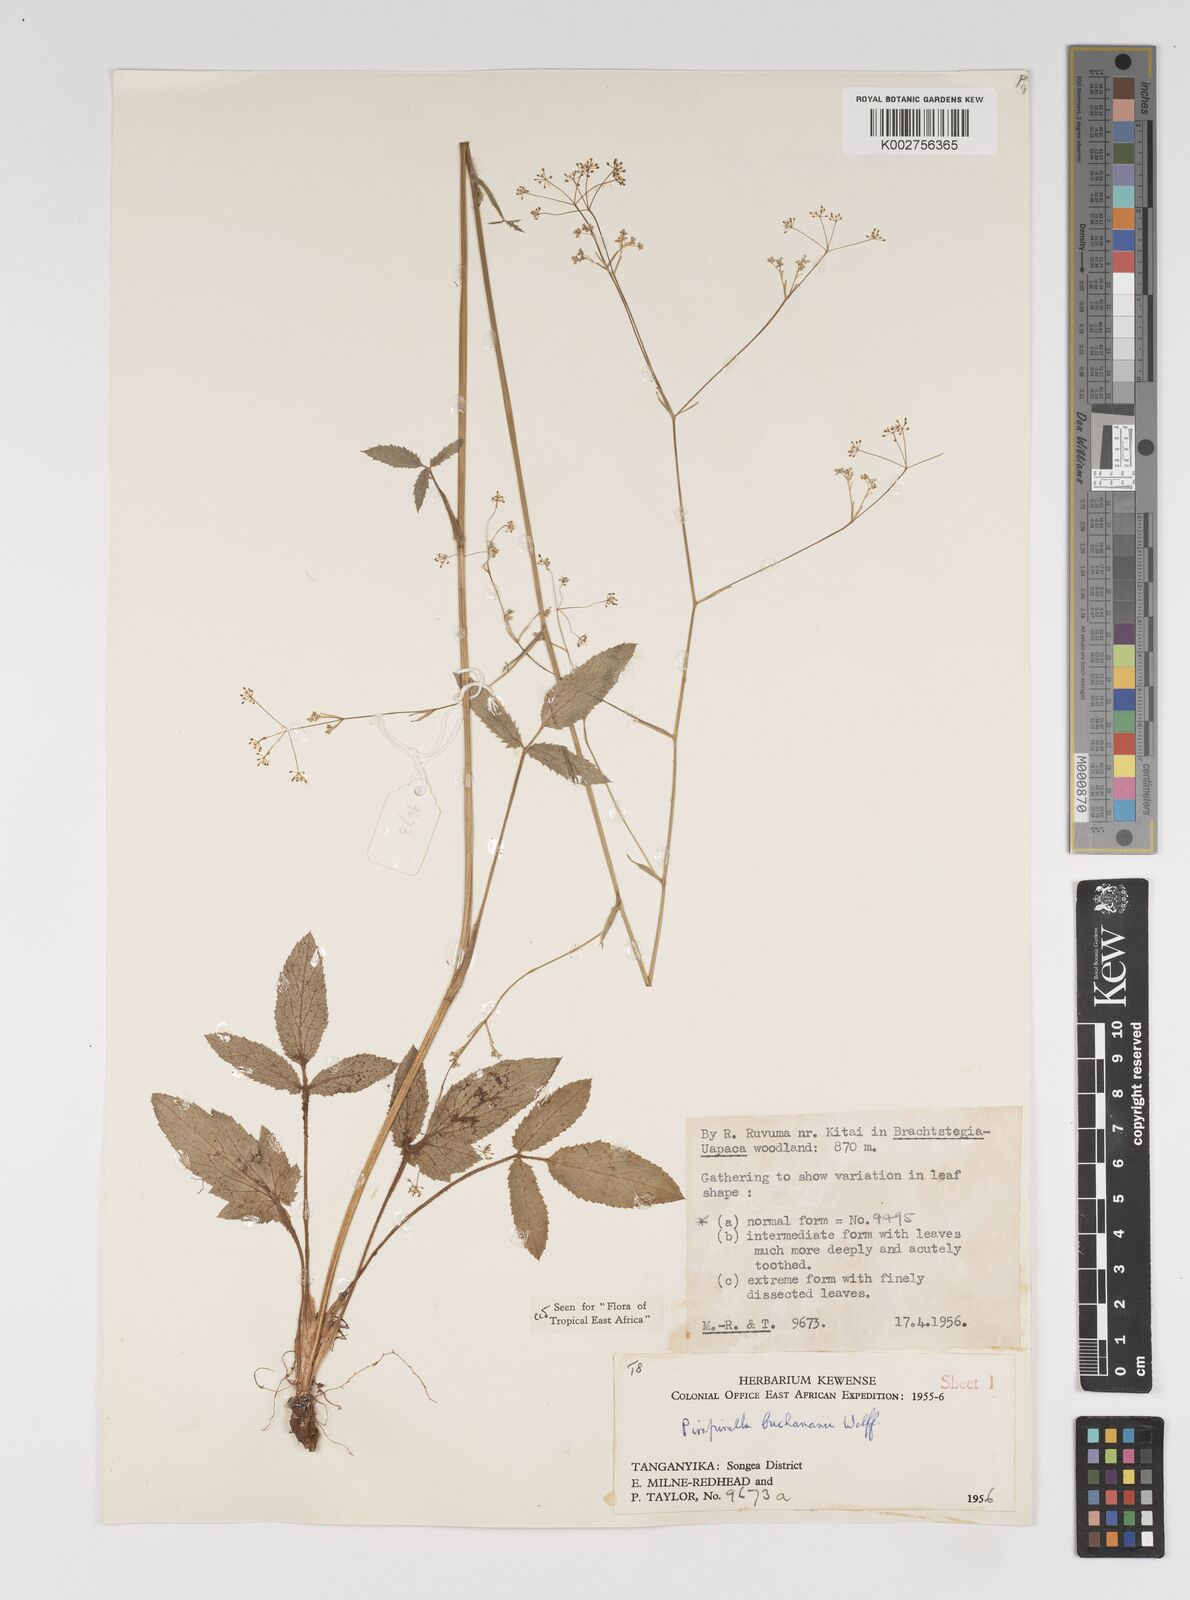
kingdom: Plantae
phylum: Tracheophyta
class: Magnoliopsida
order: Apiales
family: Apiaceae
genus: Pimpinella
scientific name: Pimpinella buchananii
